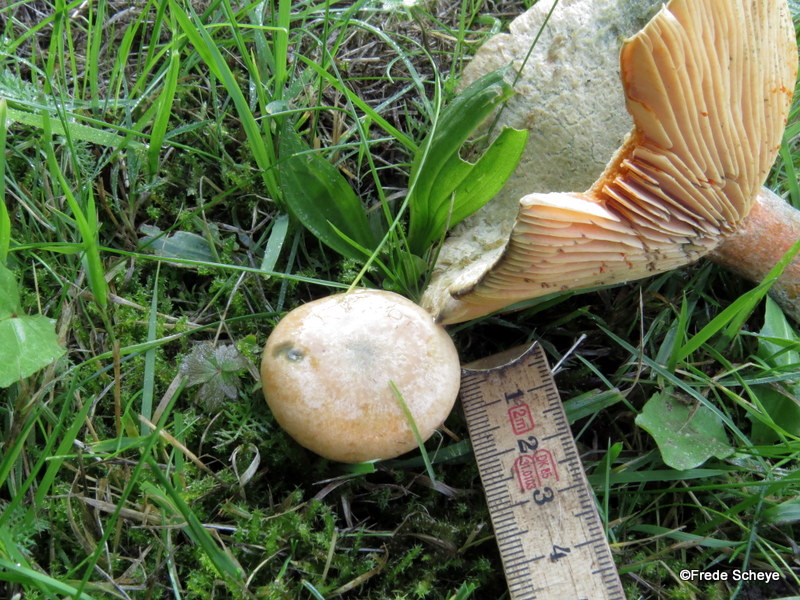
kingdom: Fungi
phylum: Basidiomycota
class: Agaricomycetes
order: Russulales
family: Russulaceae
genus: Lactarius
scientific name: Lactarius deterrimus
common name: gran-mælkehat
